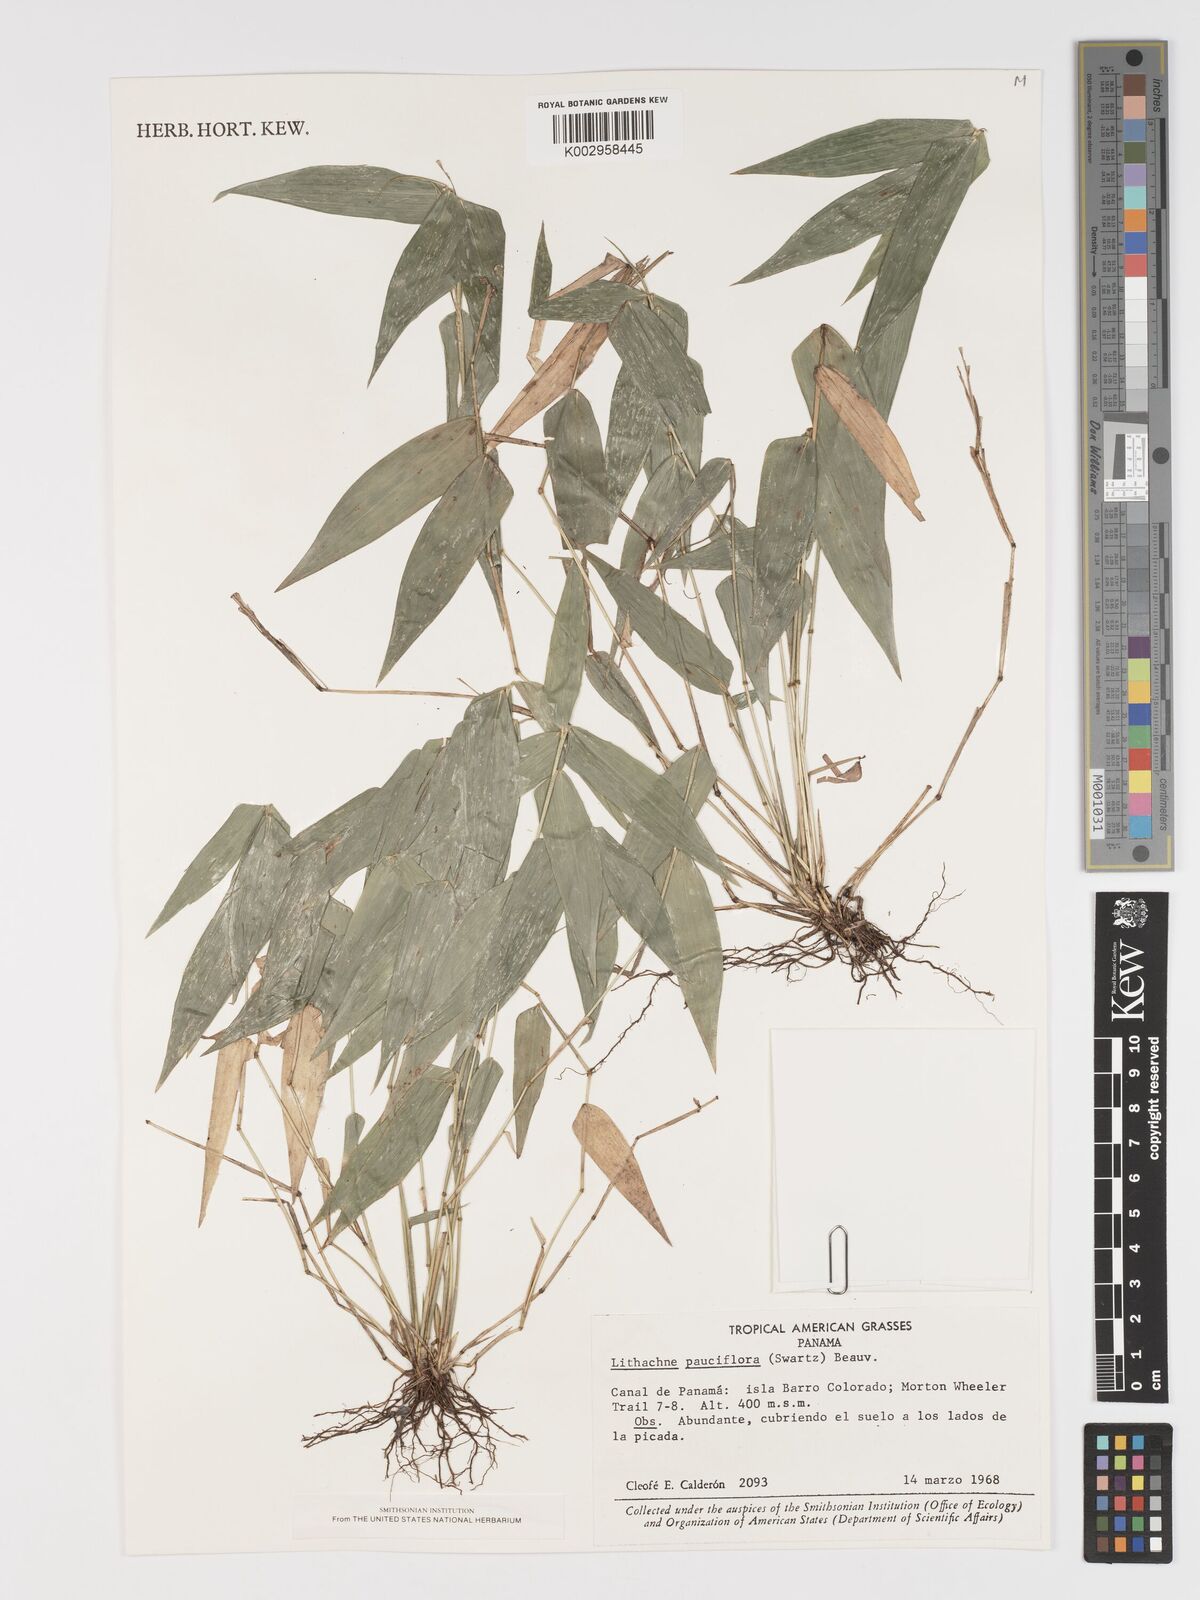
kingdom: Plantae
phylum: Tracheophyta
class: Liliopsida
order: Poales
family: Poaceae
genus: Lithachne
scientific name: Lithachne pauciflora
